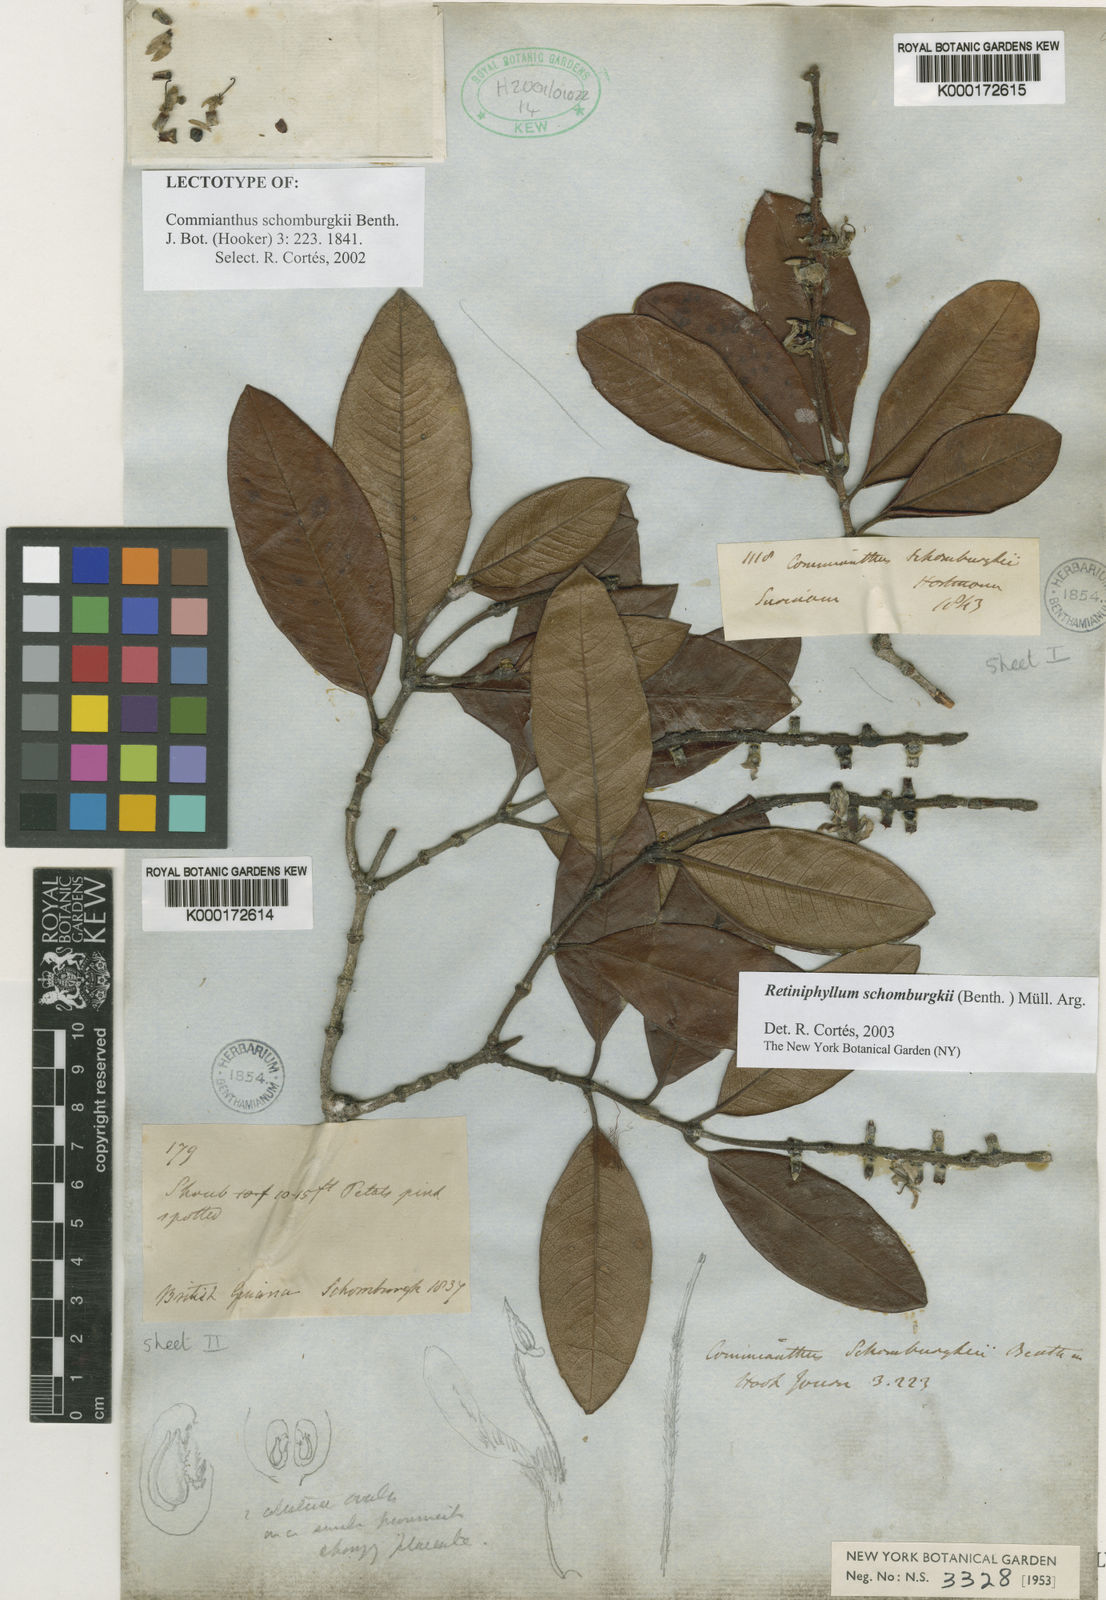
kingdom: Plantae
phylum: Tracheophyta
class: Magnoliopsida
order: Gentianales
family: Rubiaceae
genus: Retiniphyllum
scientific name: Retiniphyllum schomburgkii
